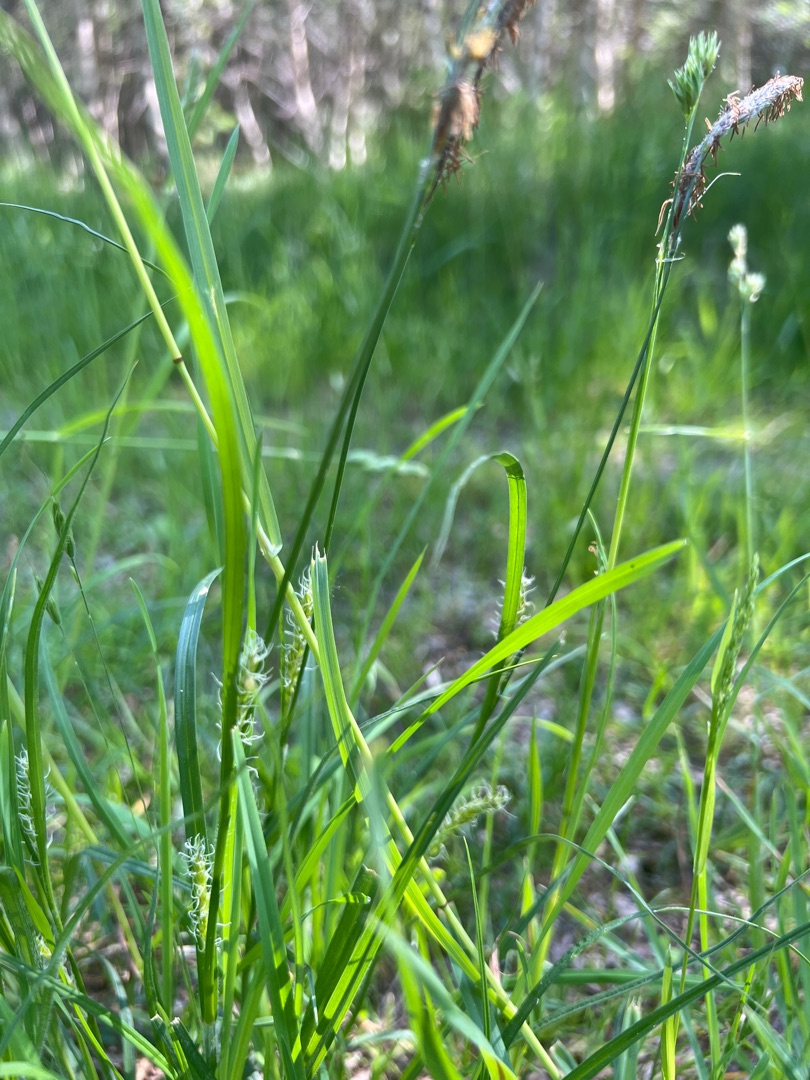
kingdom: Plantae
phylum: Tracheophyta
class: Liliopsida
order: Poales
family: Cyperaceae
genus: Carex
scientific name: Carex hirta
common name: Håret star
